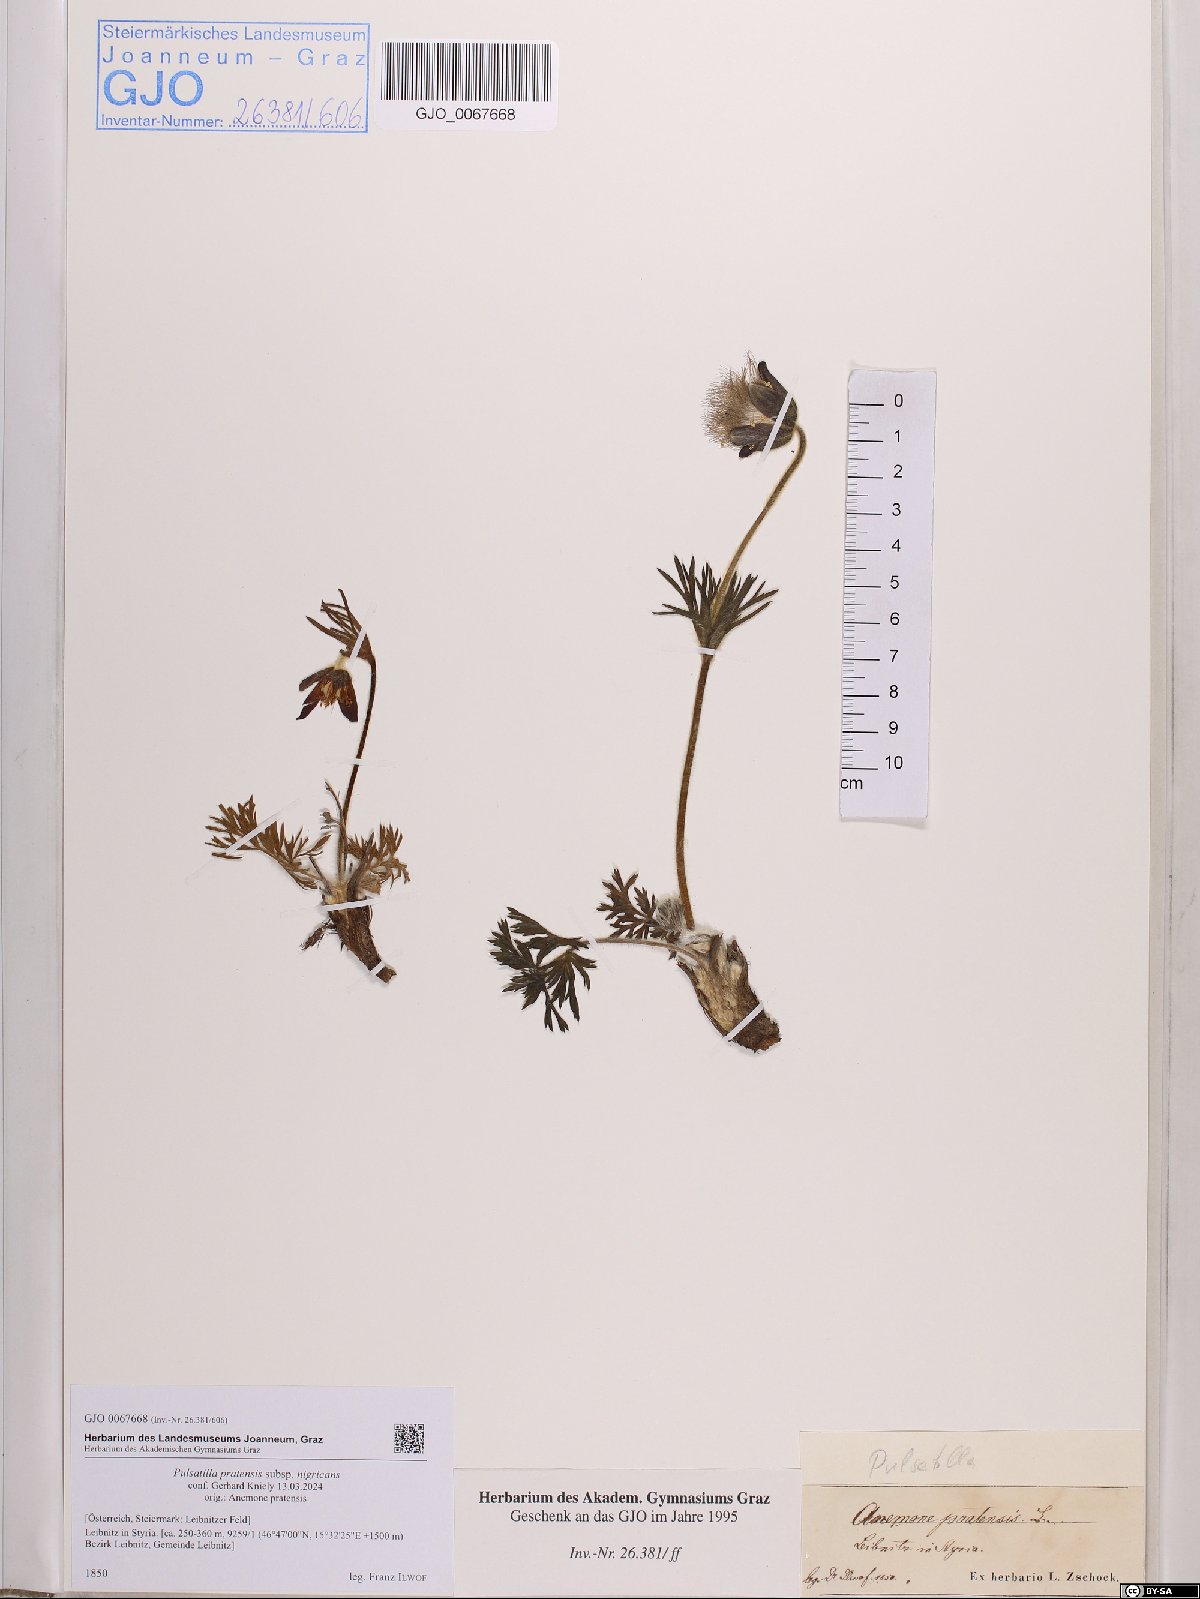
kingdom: Plantae
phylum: Tracheophyta
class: Magnoliopsida
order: Ranunculales
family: Ranunculaceae
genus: Pulsatilla
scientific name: Pulsatilla pratensis
